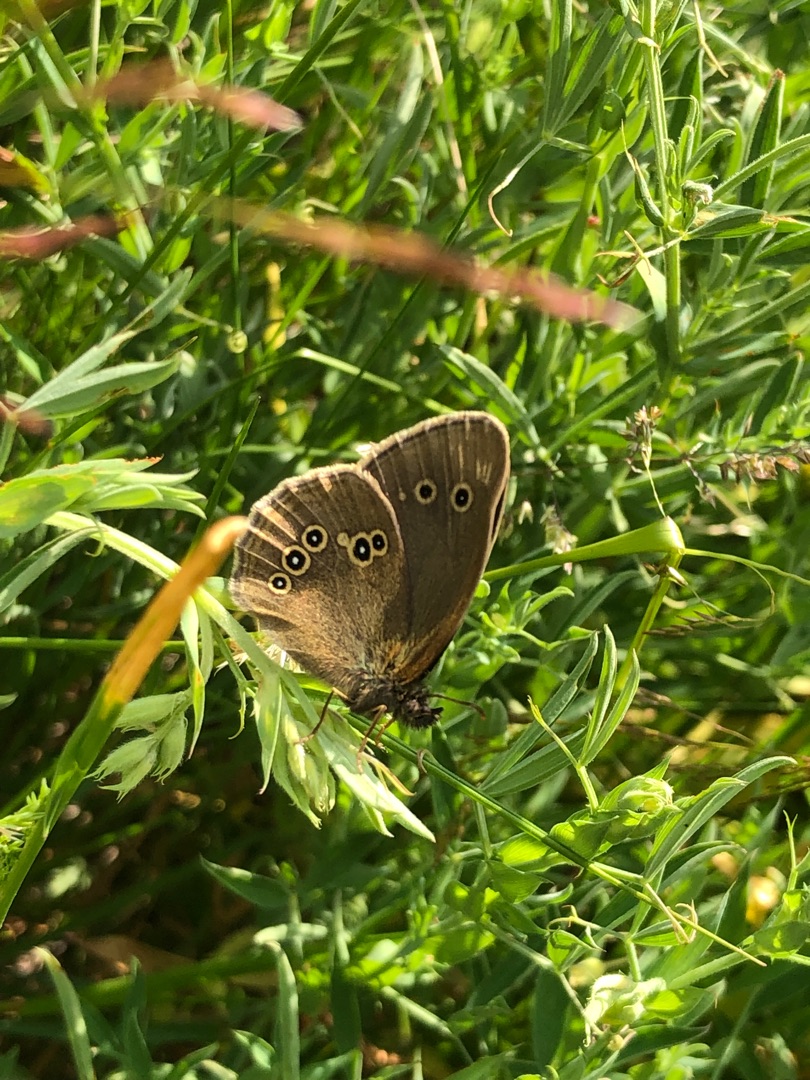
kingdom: Animalia
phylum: Arthropoda
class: Insecta
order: Lepidoptera
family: Nymphalidae
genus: Aphantopus
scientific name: Aphantopus hyperantus
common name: Engrandøje
